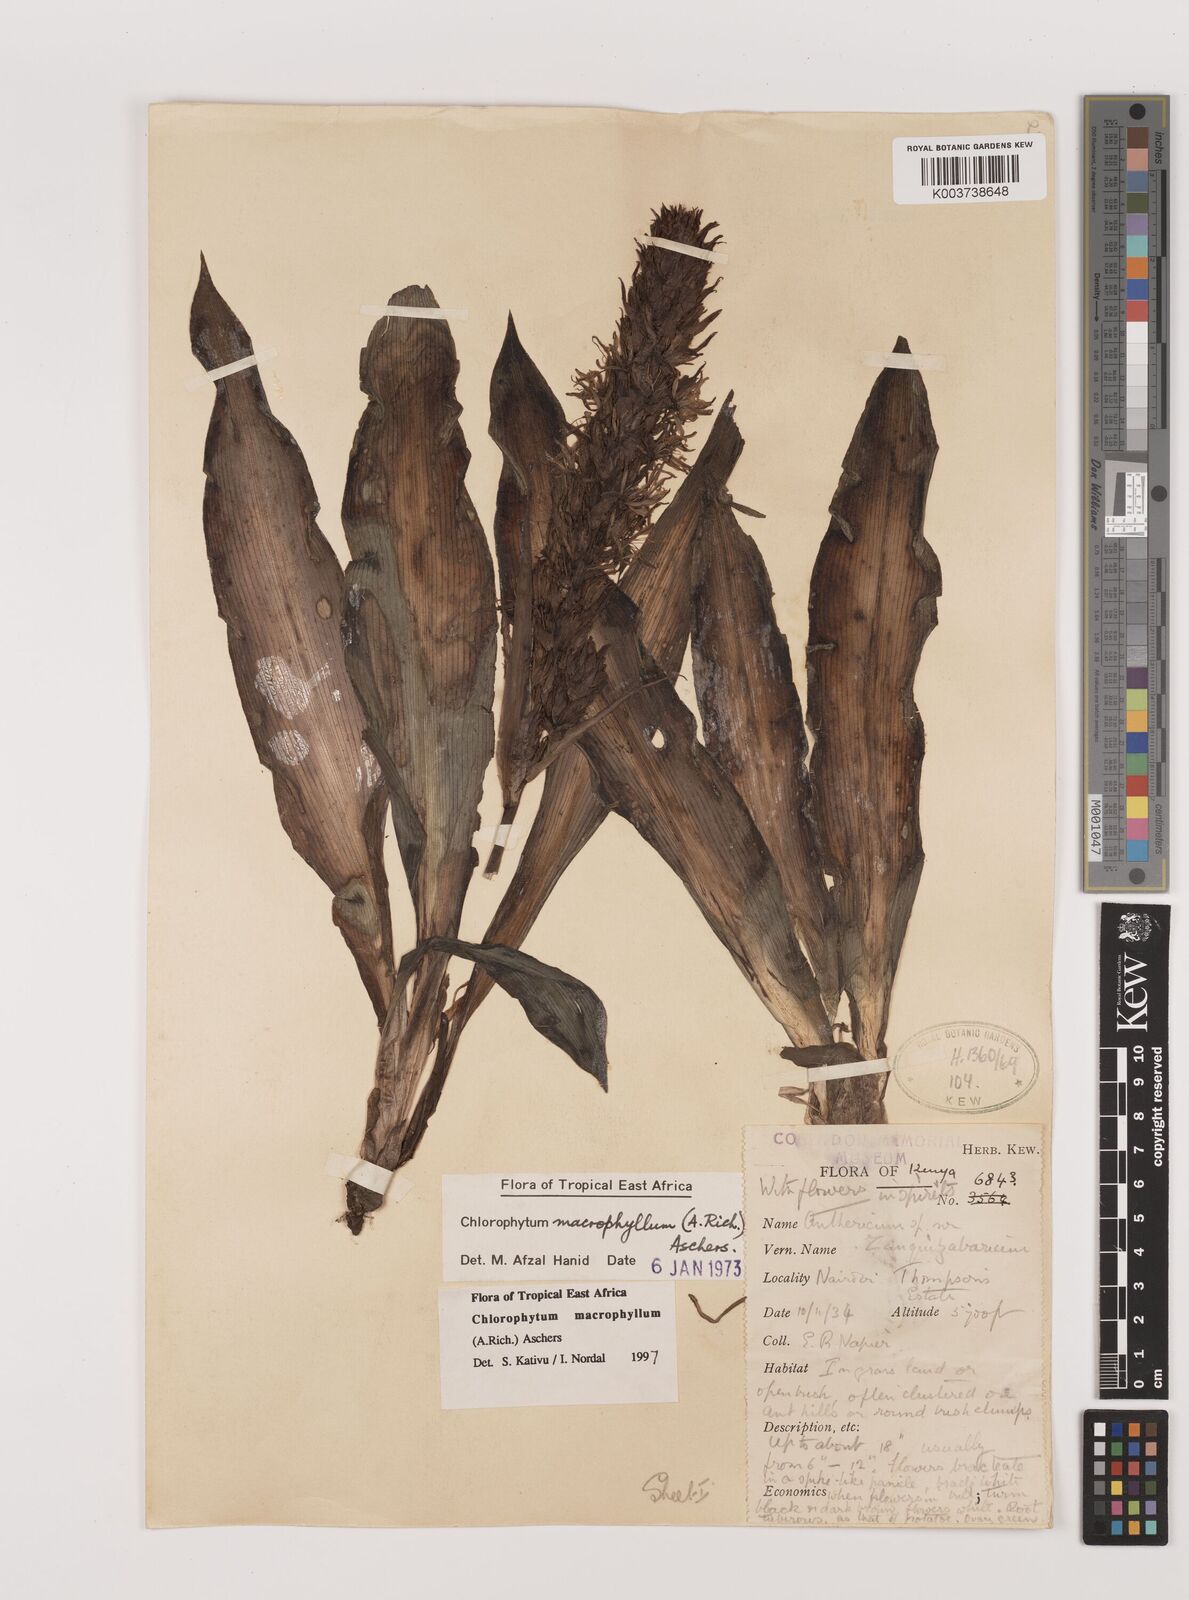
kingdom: Plantae
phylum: Tracheophyta
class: Liliopsida
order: Asparagales
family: Asparagaceae
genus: Chlorophytum
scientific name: Chlorophytum macrophyllum
